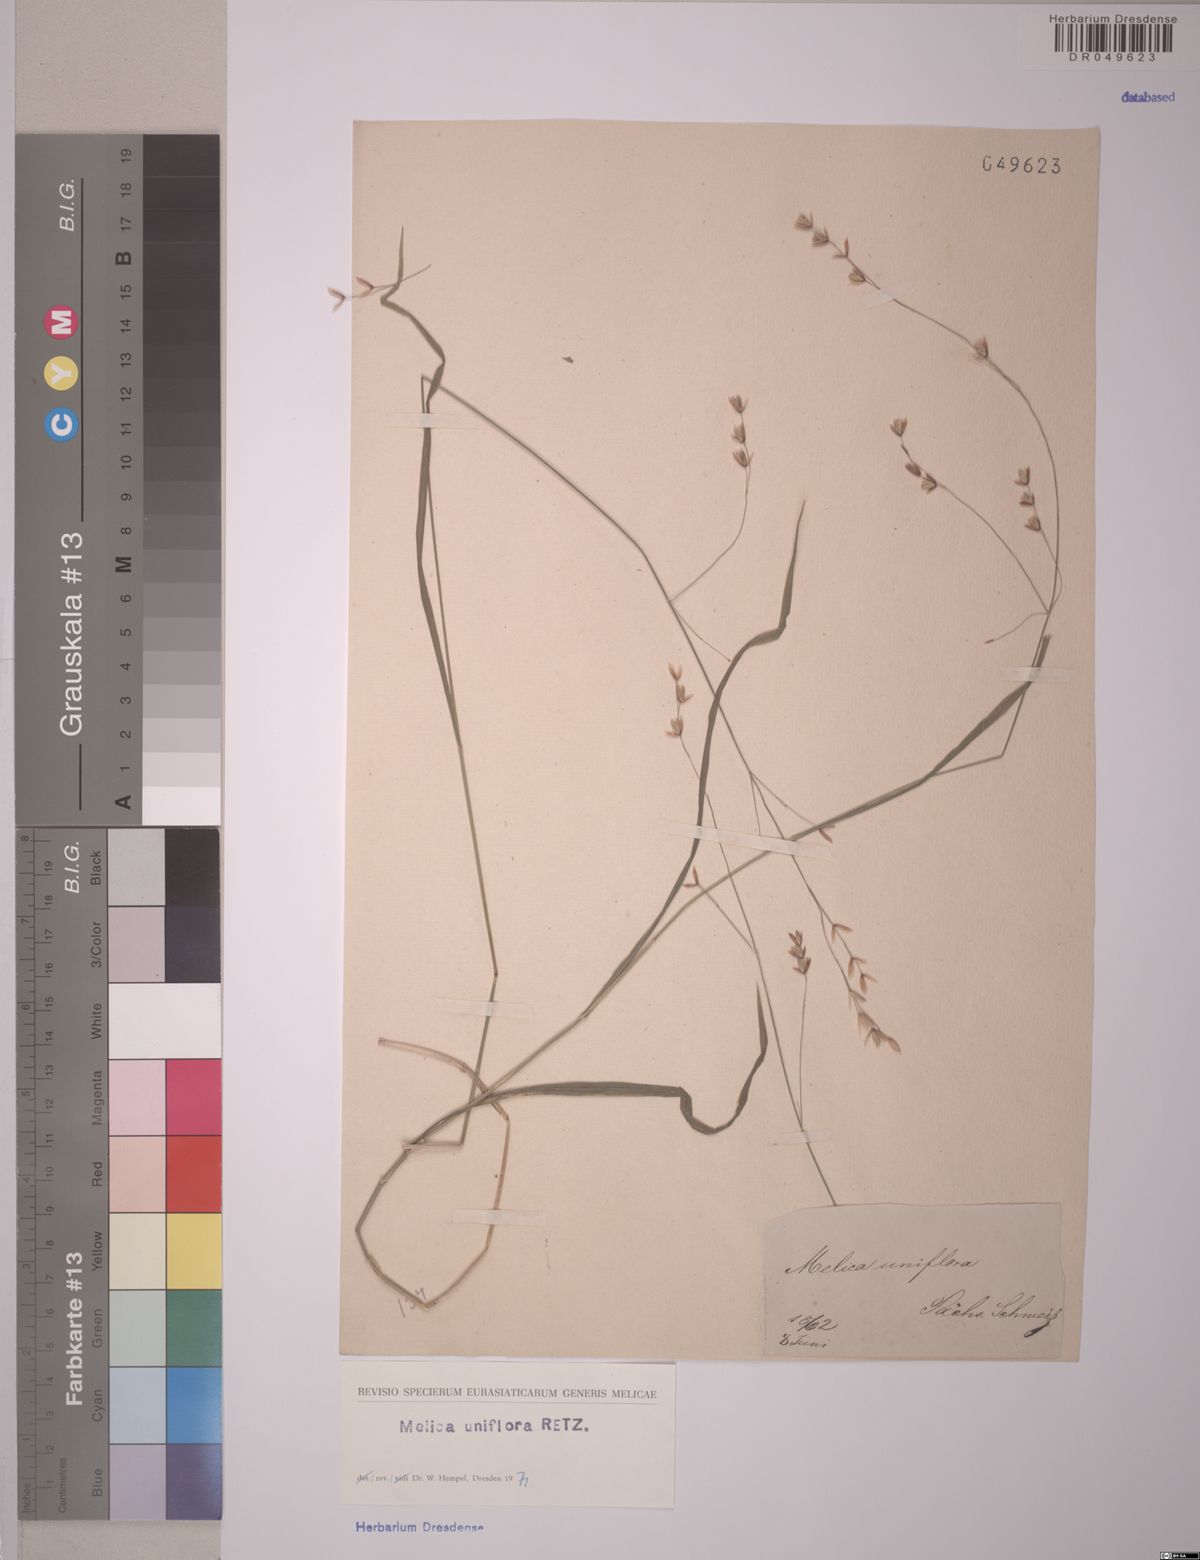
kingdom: Plantae
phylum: Tracheophyta
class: Liliopsida
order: Poales
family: Poaceae
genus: Melica
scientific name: Melica uniflora
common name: Wood melick
